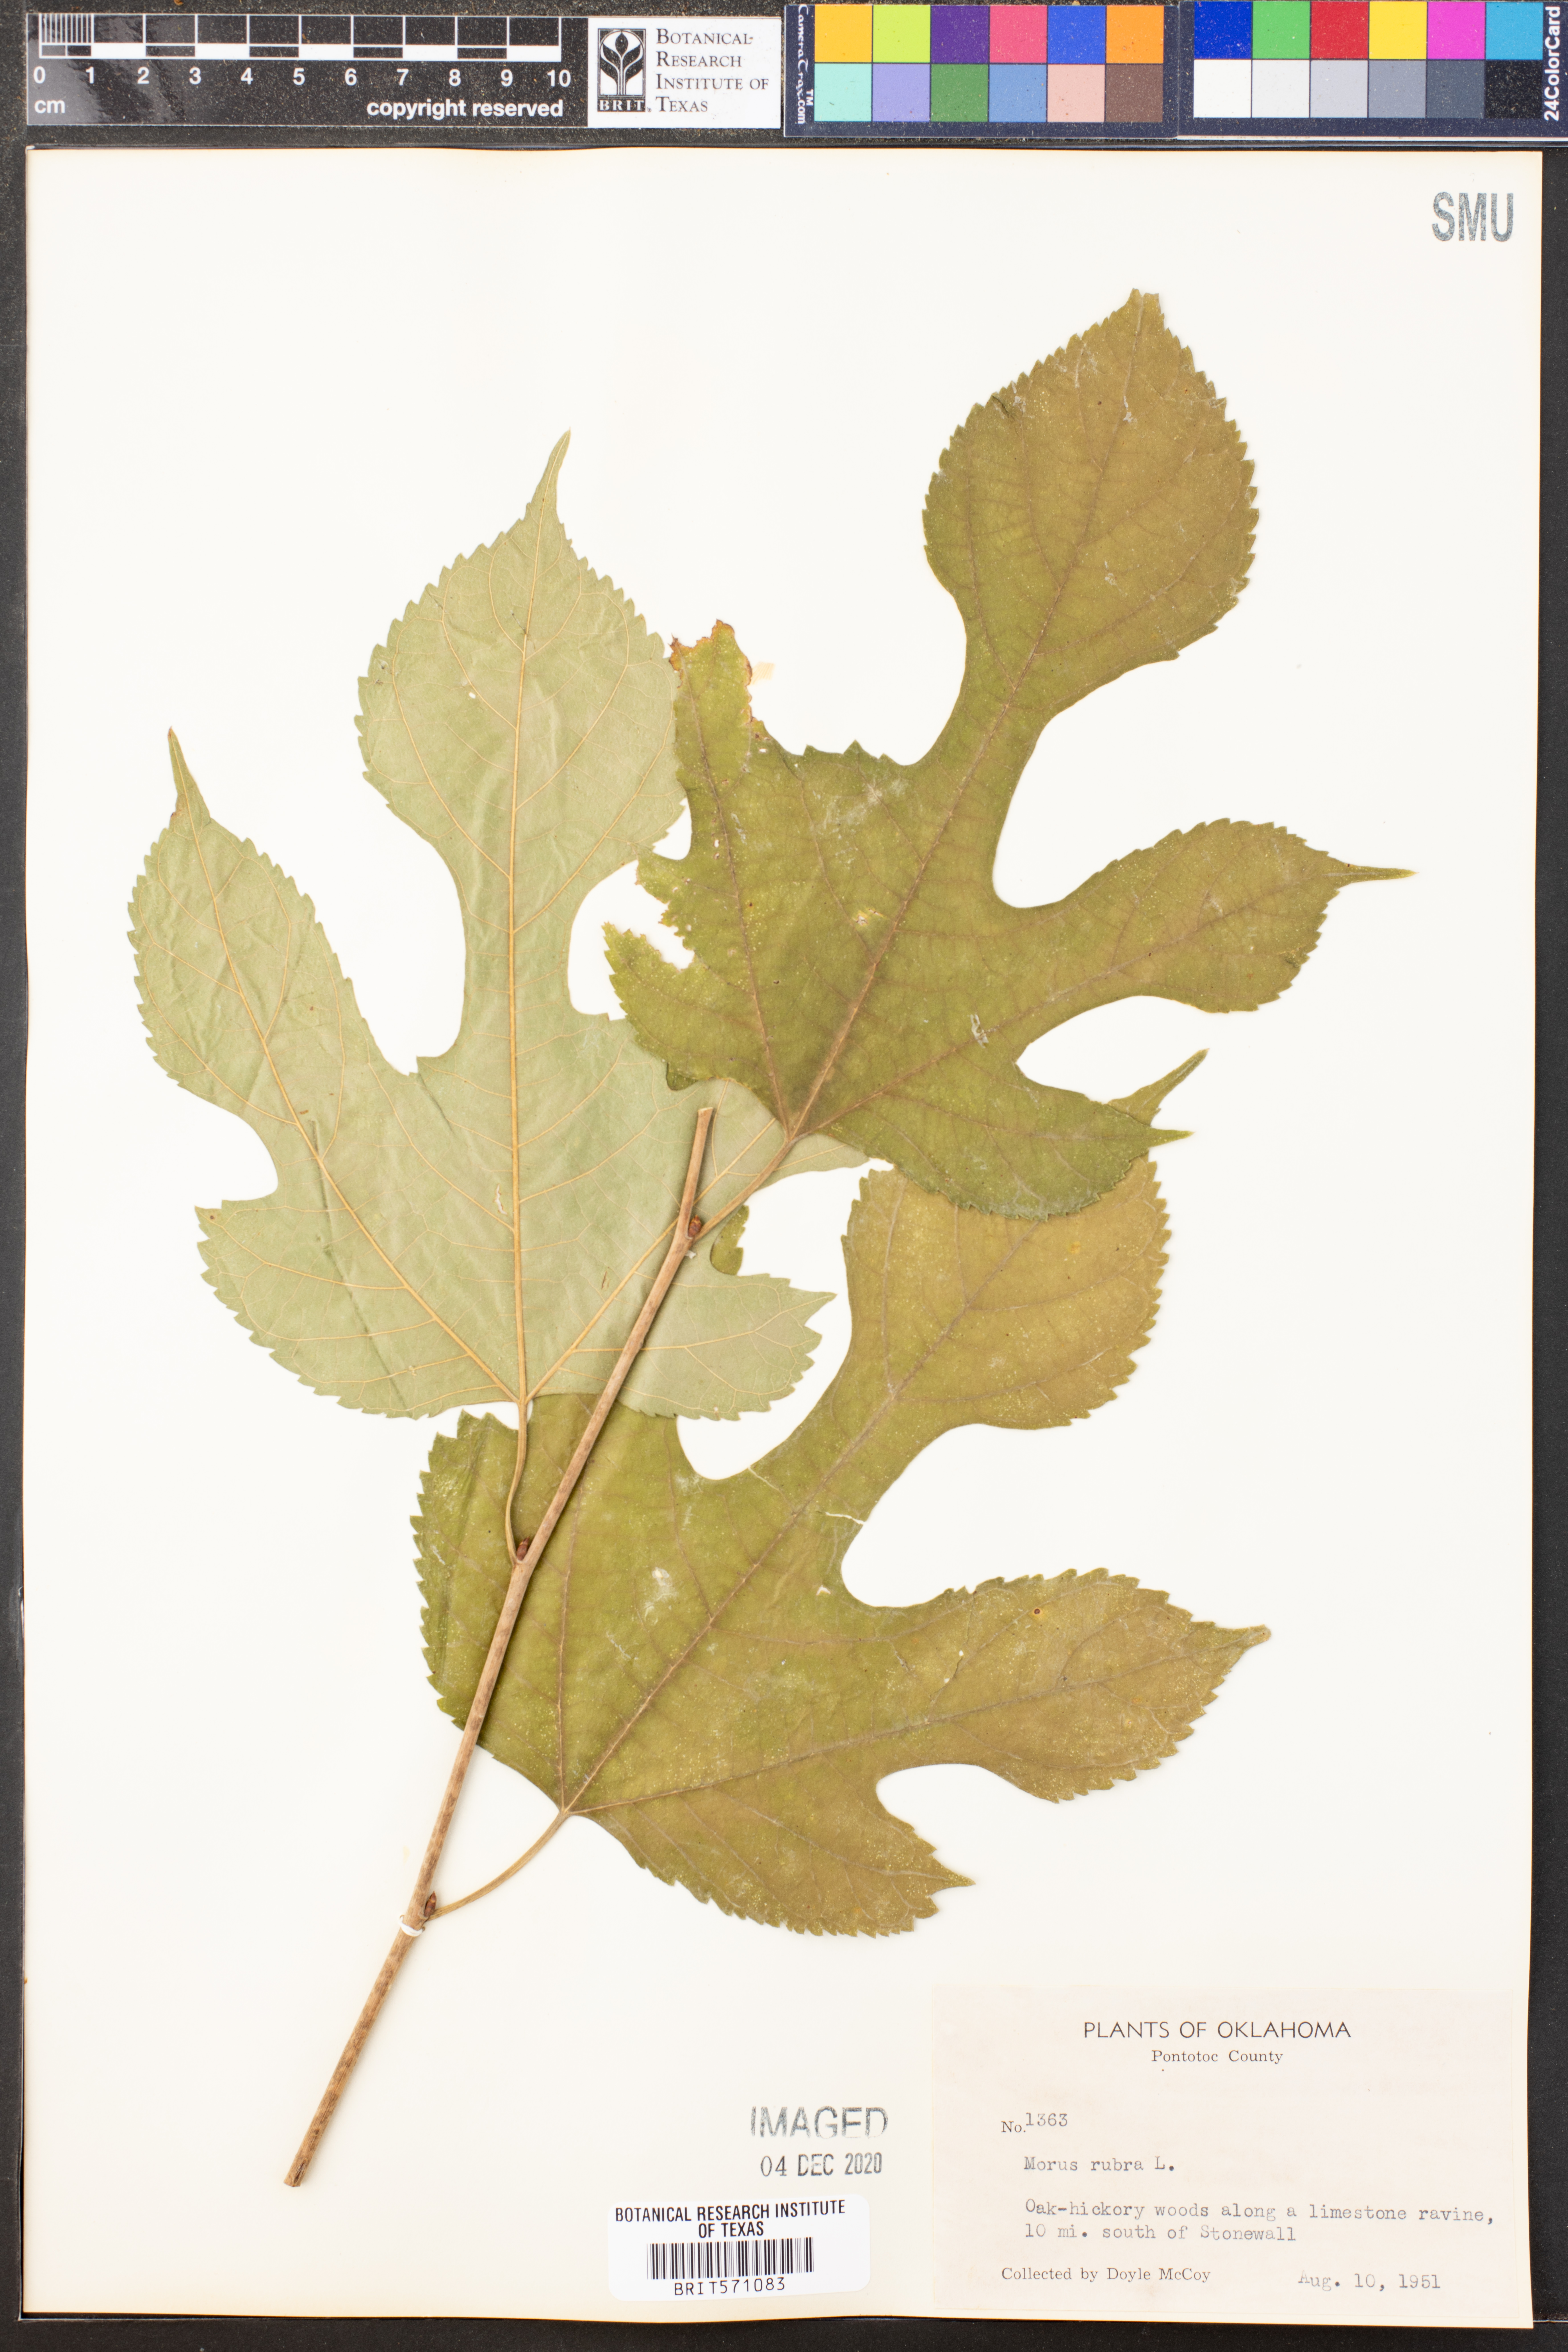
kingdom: Plantae
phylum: Tracheophyta
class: Magnoliopsida
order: Rosales
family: Moraceae
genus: Morus
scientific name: Morus rubra
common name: Red mulberry
